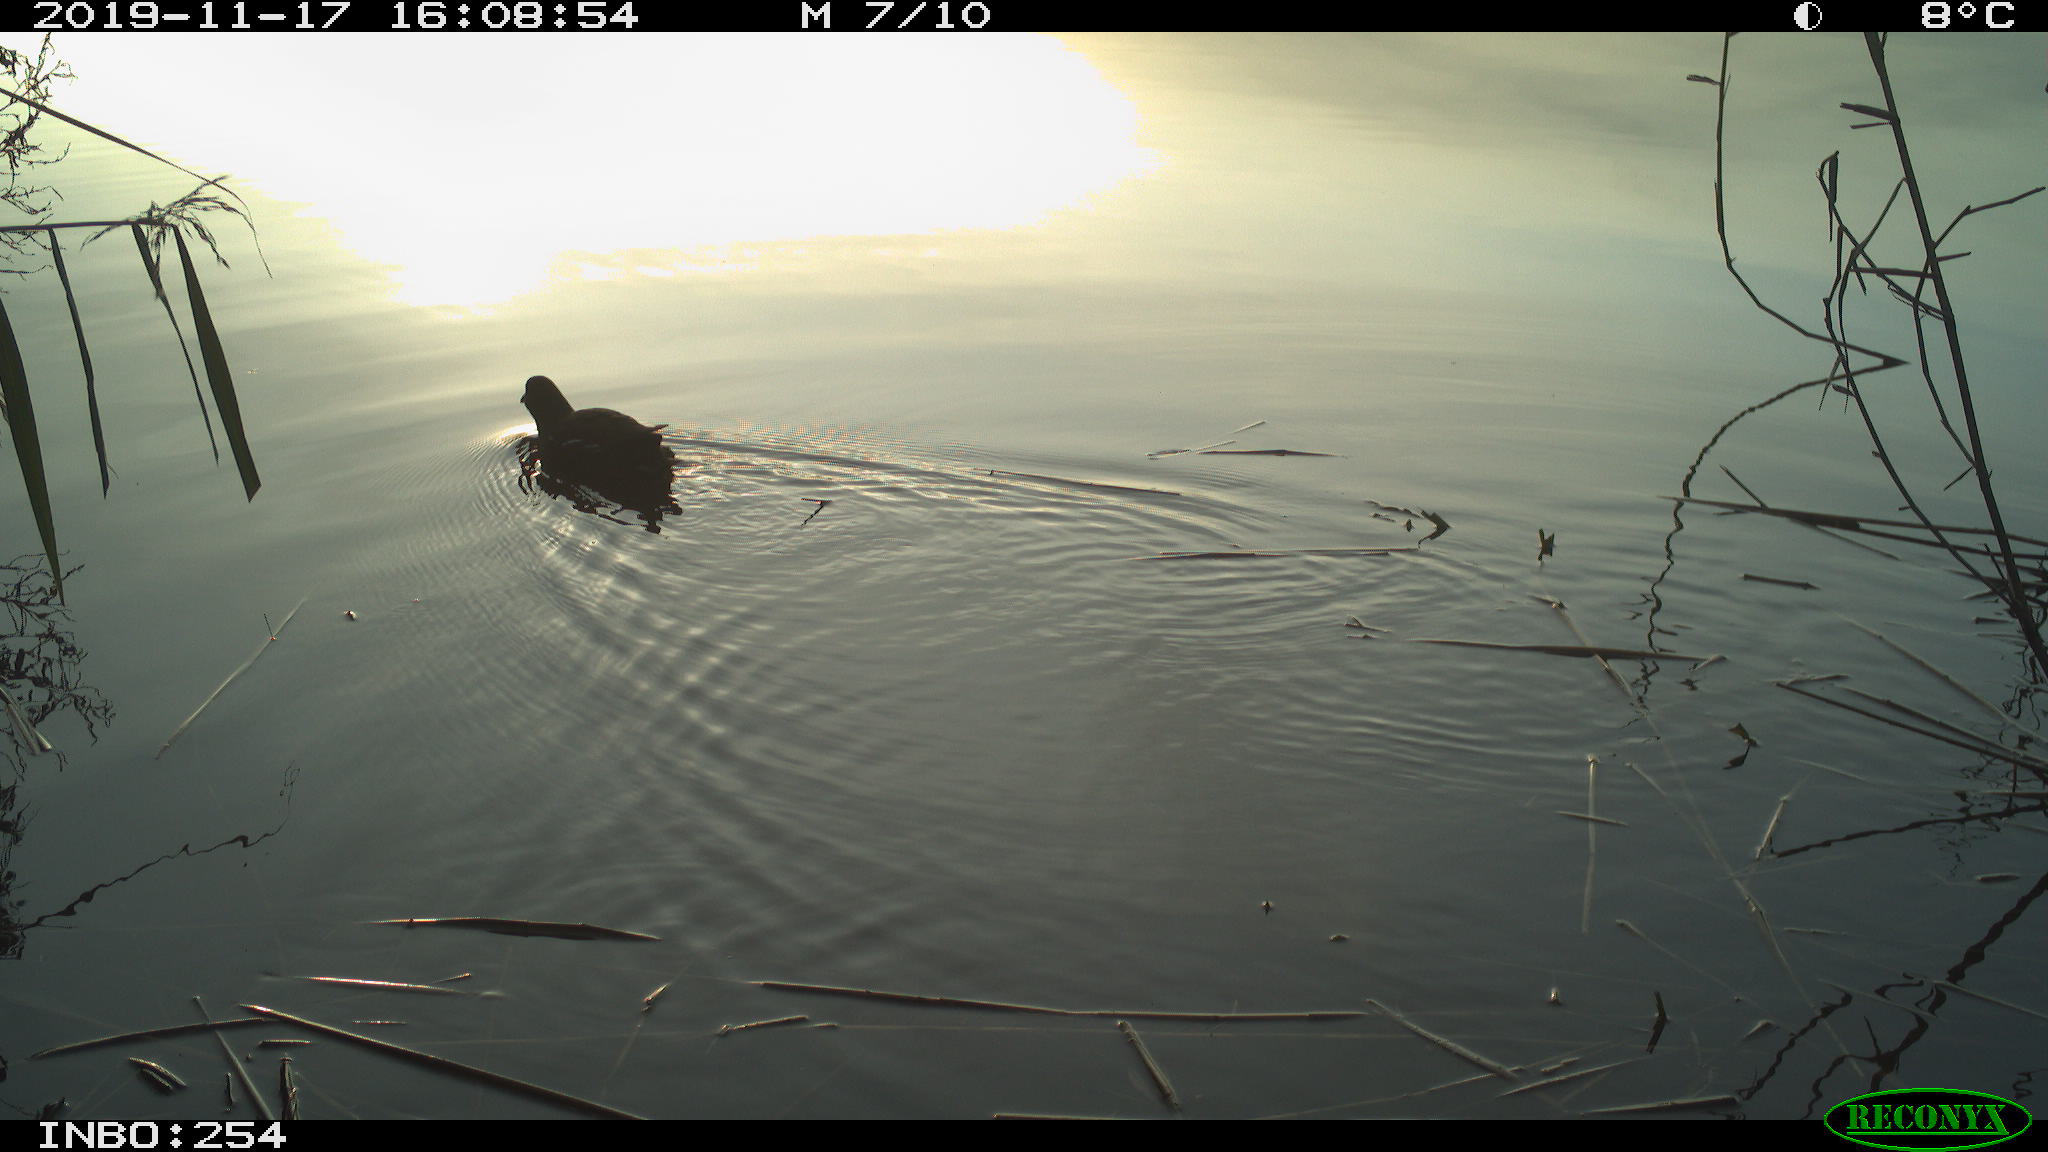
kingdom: Animalia
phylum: Chordata
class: Aves
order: Gruiformes
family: Rallidae
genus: Gallinula
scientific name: Gallinula chloropus
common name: Common moorhen
